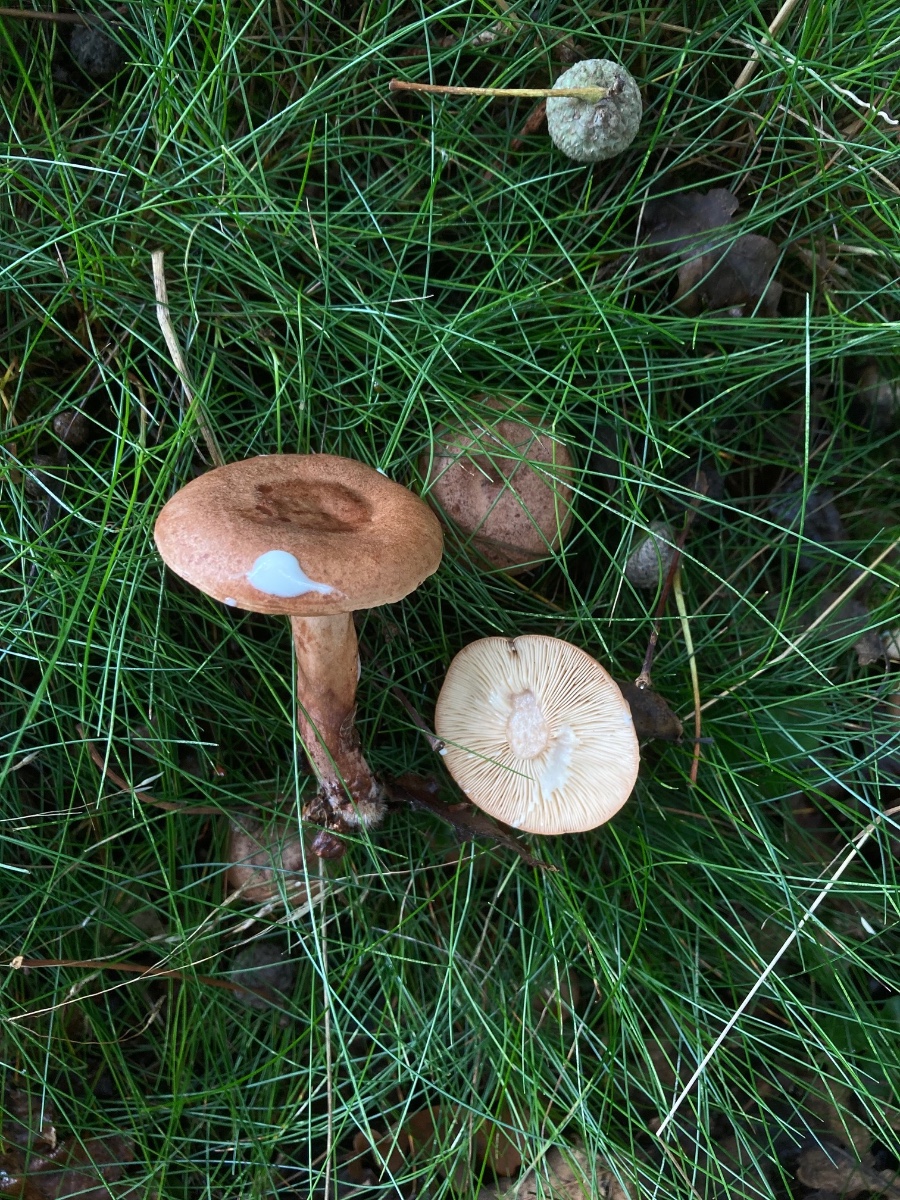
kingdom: Fungi
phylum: Basidiomycota
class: Agaricomycetes
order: Russulales
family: Russulaceae
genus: Lactarius
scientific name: Lactarius quietus
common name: ege-mælkehat
